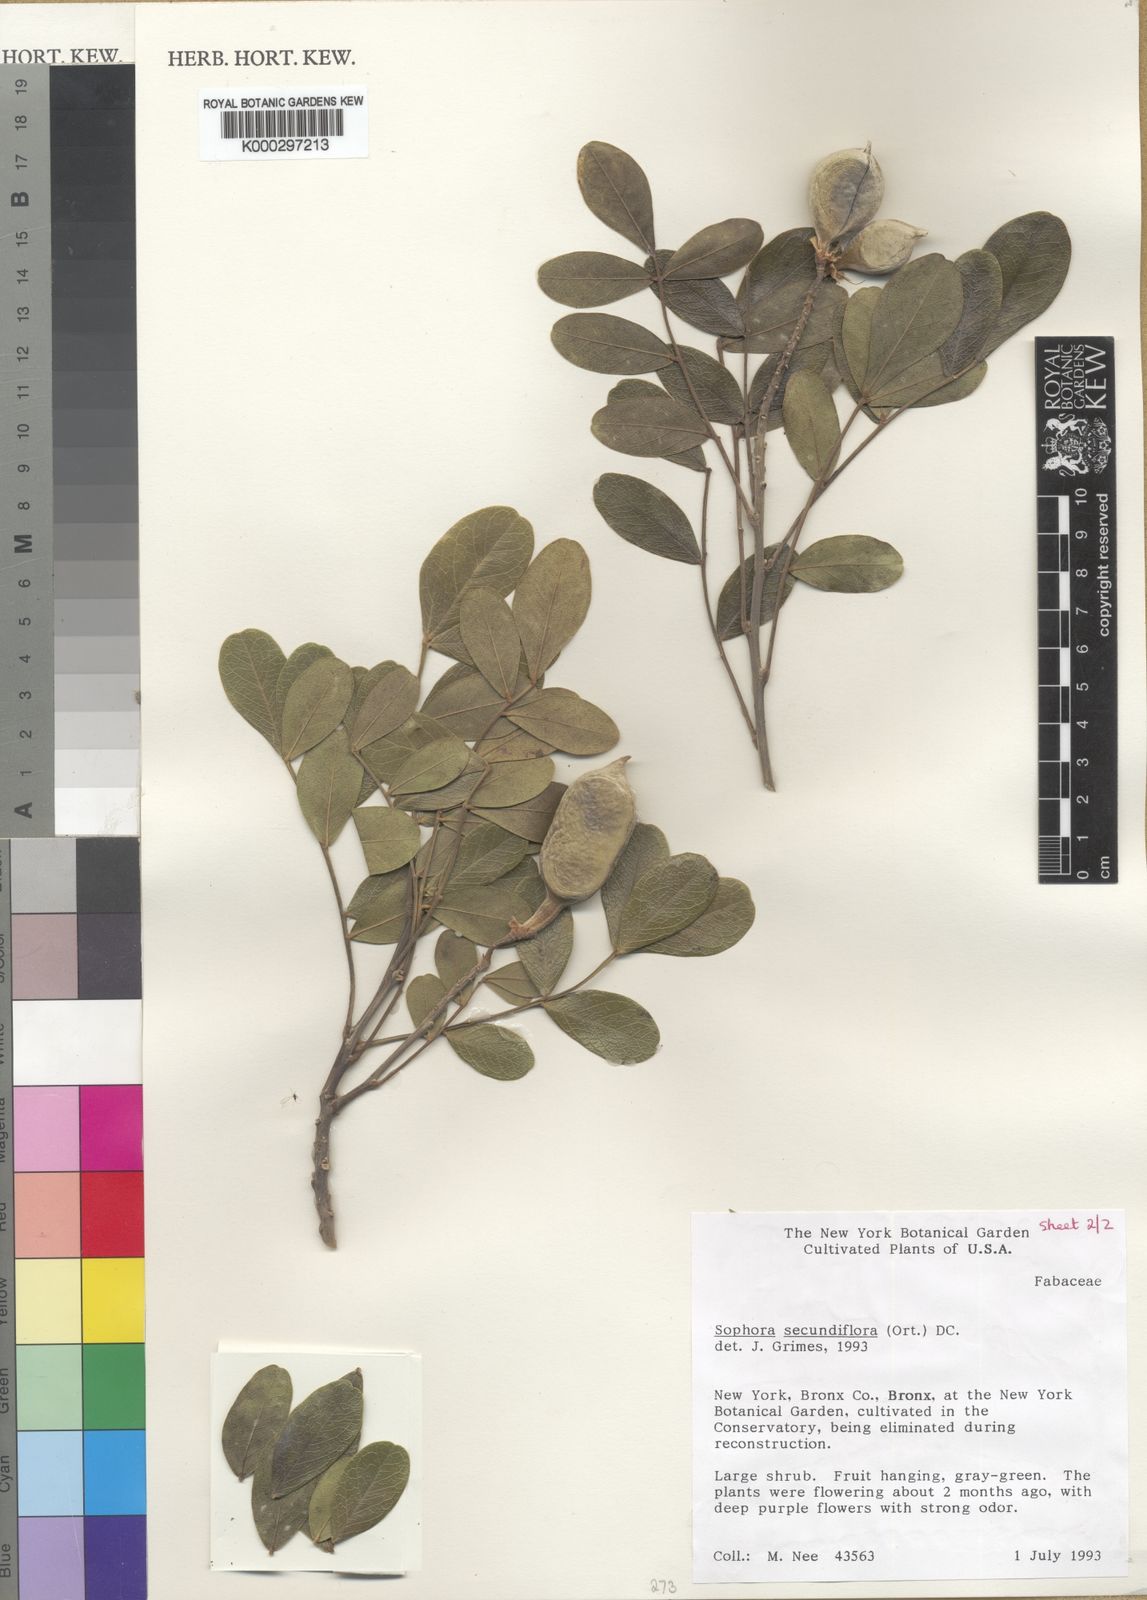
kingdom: Plantae
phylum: Tracheophyta
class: Magnoliopsida
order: Fabales
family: Fabaceae
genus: Dermatophyllum
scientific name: Dermatophyllum secundiflorum
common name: Texas-mountain-laurel
